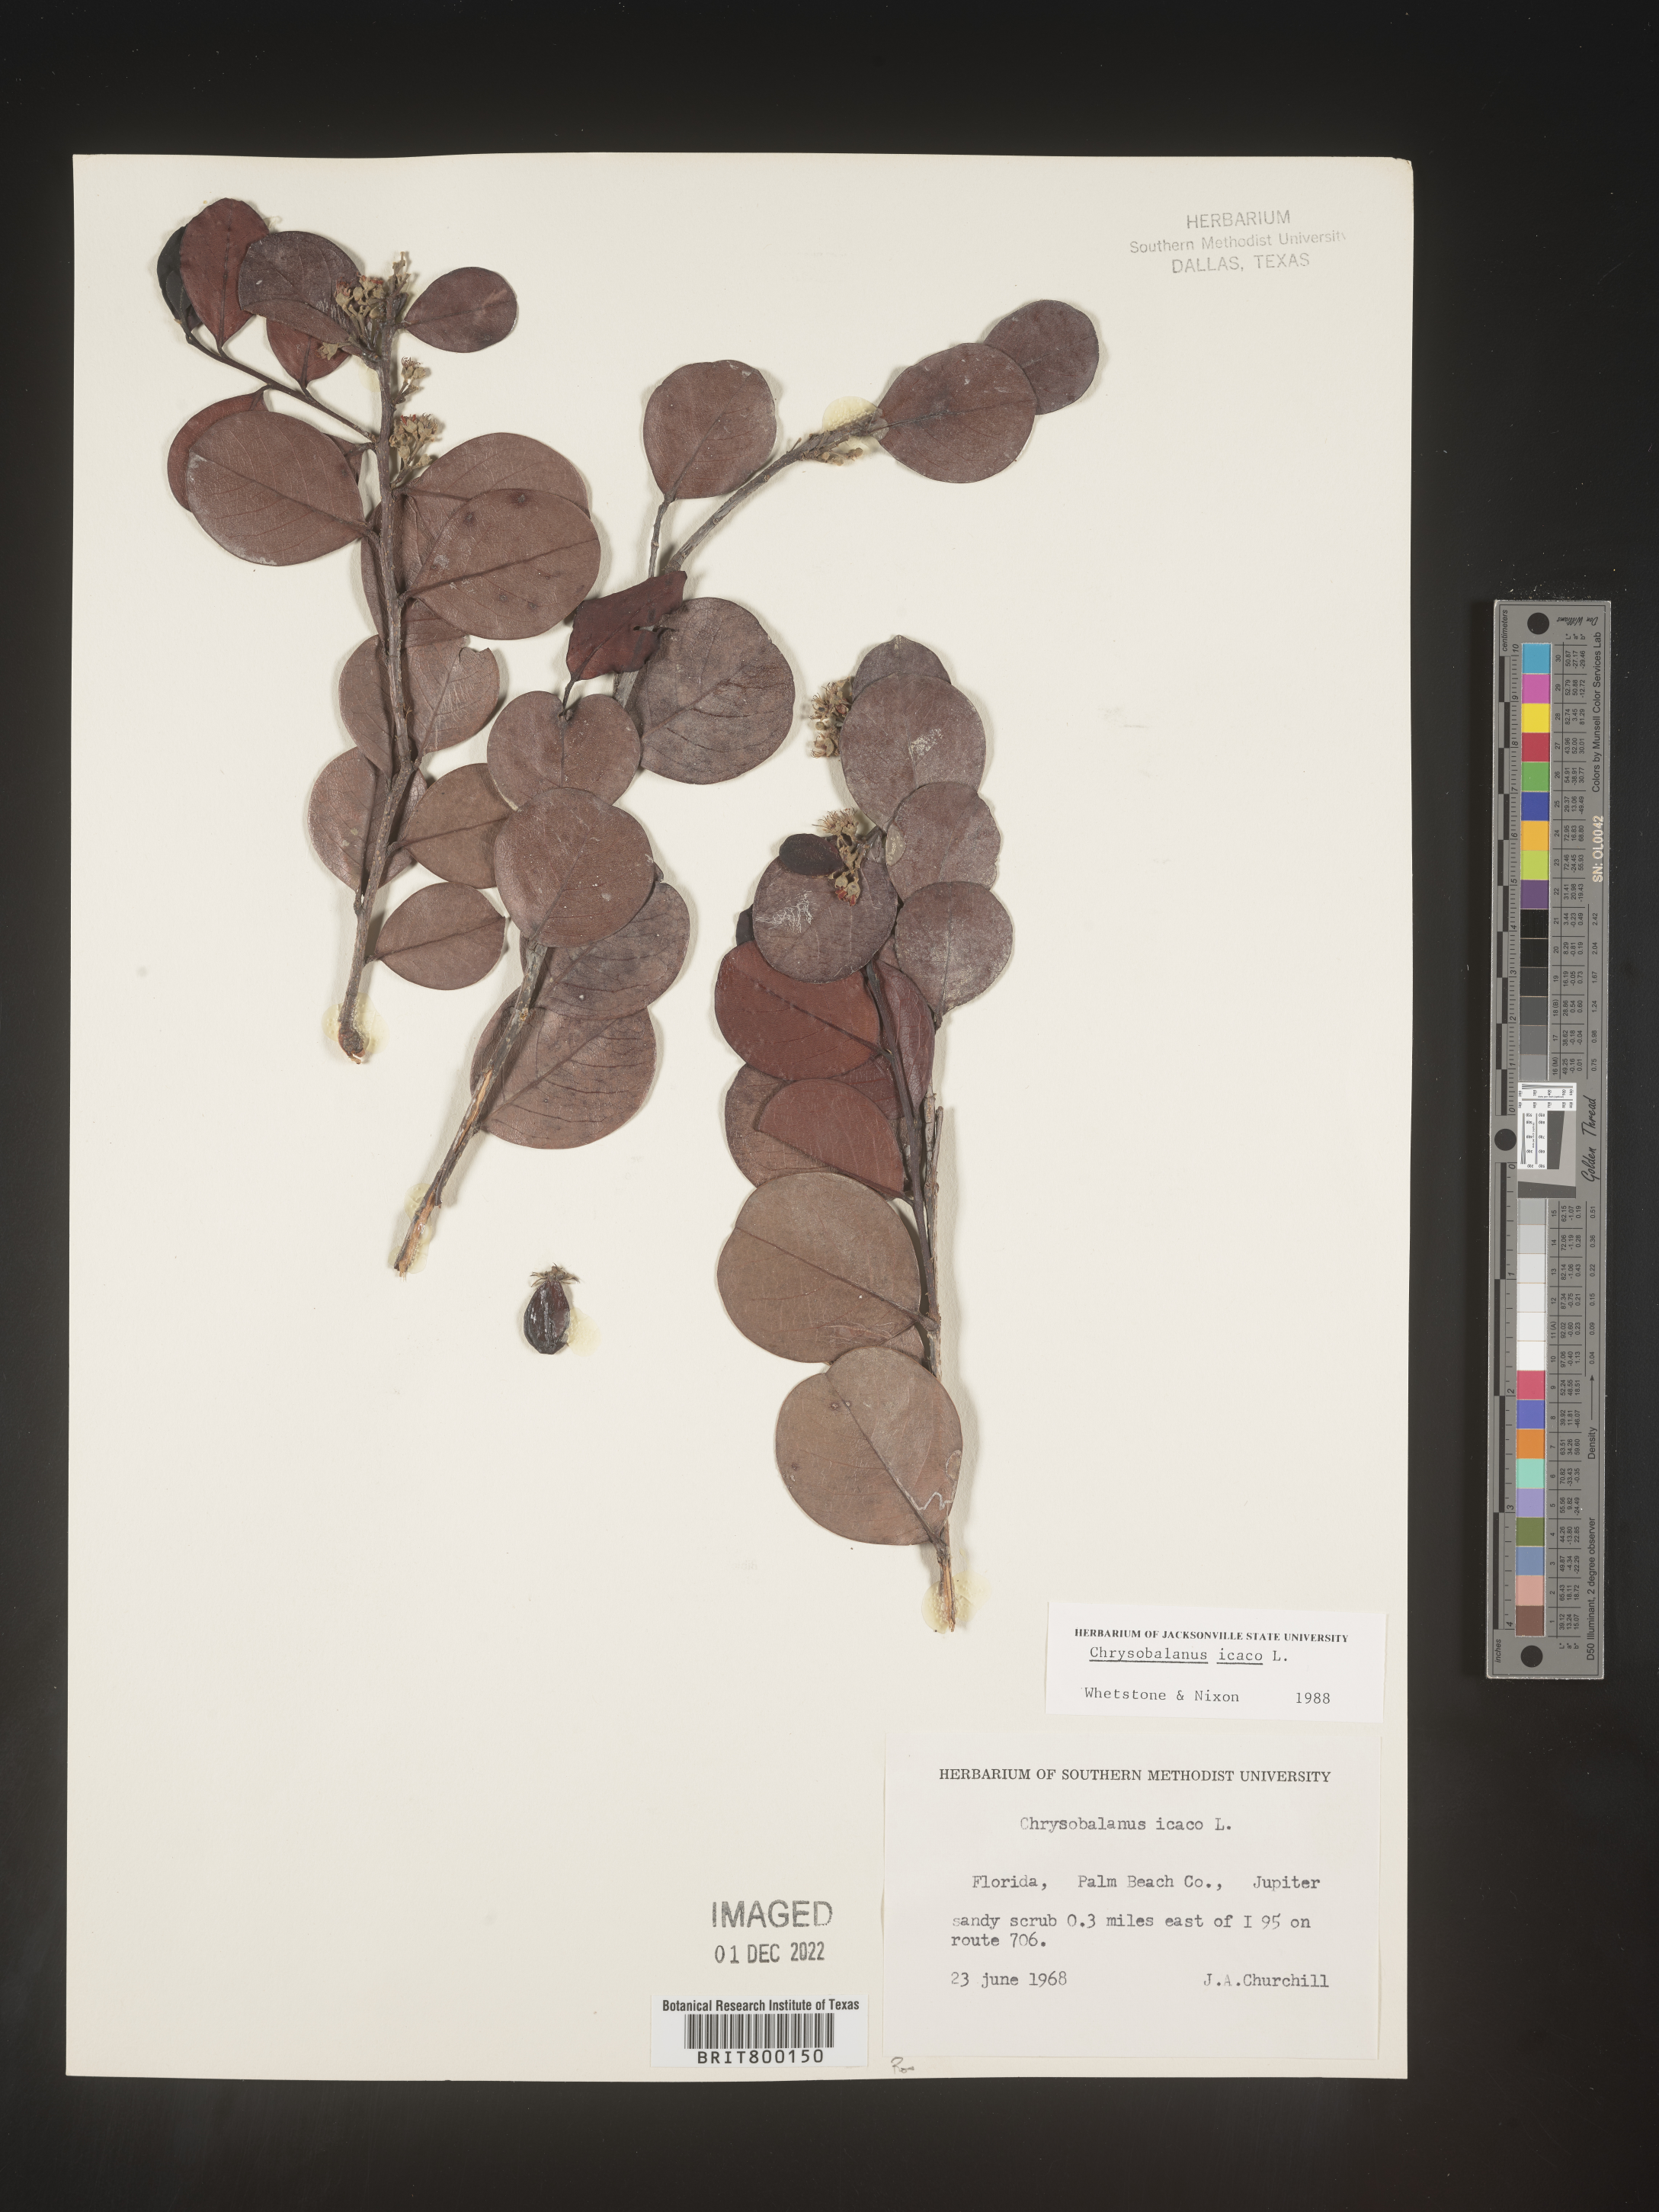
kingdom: Plantae
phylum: Tracheophyta
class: Magnoliopsida
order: Malpighiales
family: Chrysobalanaceae
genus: Chrysobalanus
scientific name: Chrysobalanus icaco
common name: Coco plum
